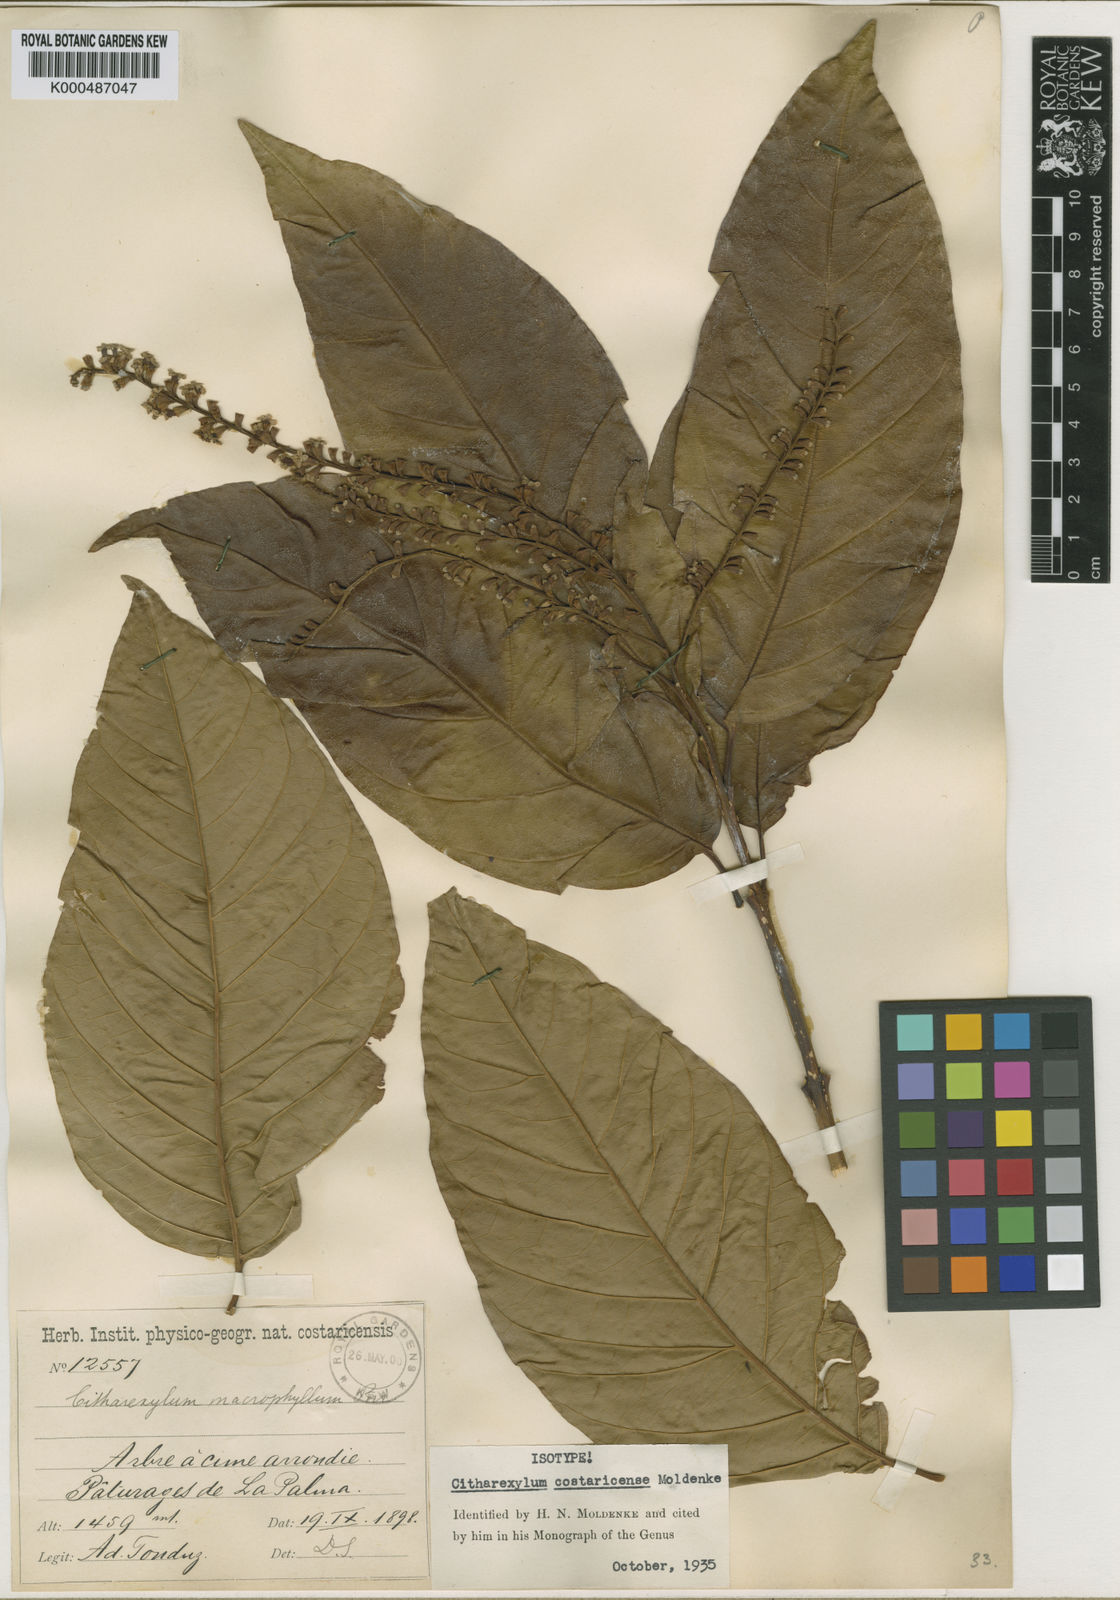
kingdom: Plantae
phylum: Tracheophyta
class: Magnoliopsida
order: Lamiales
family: Verbenaceae
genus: Citharexylum
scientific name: Citharexylum costaricense
